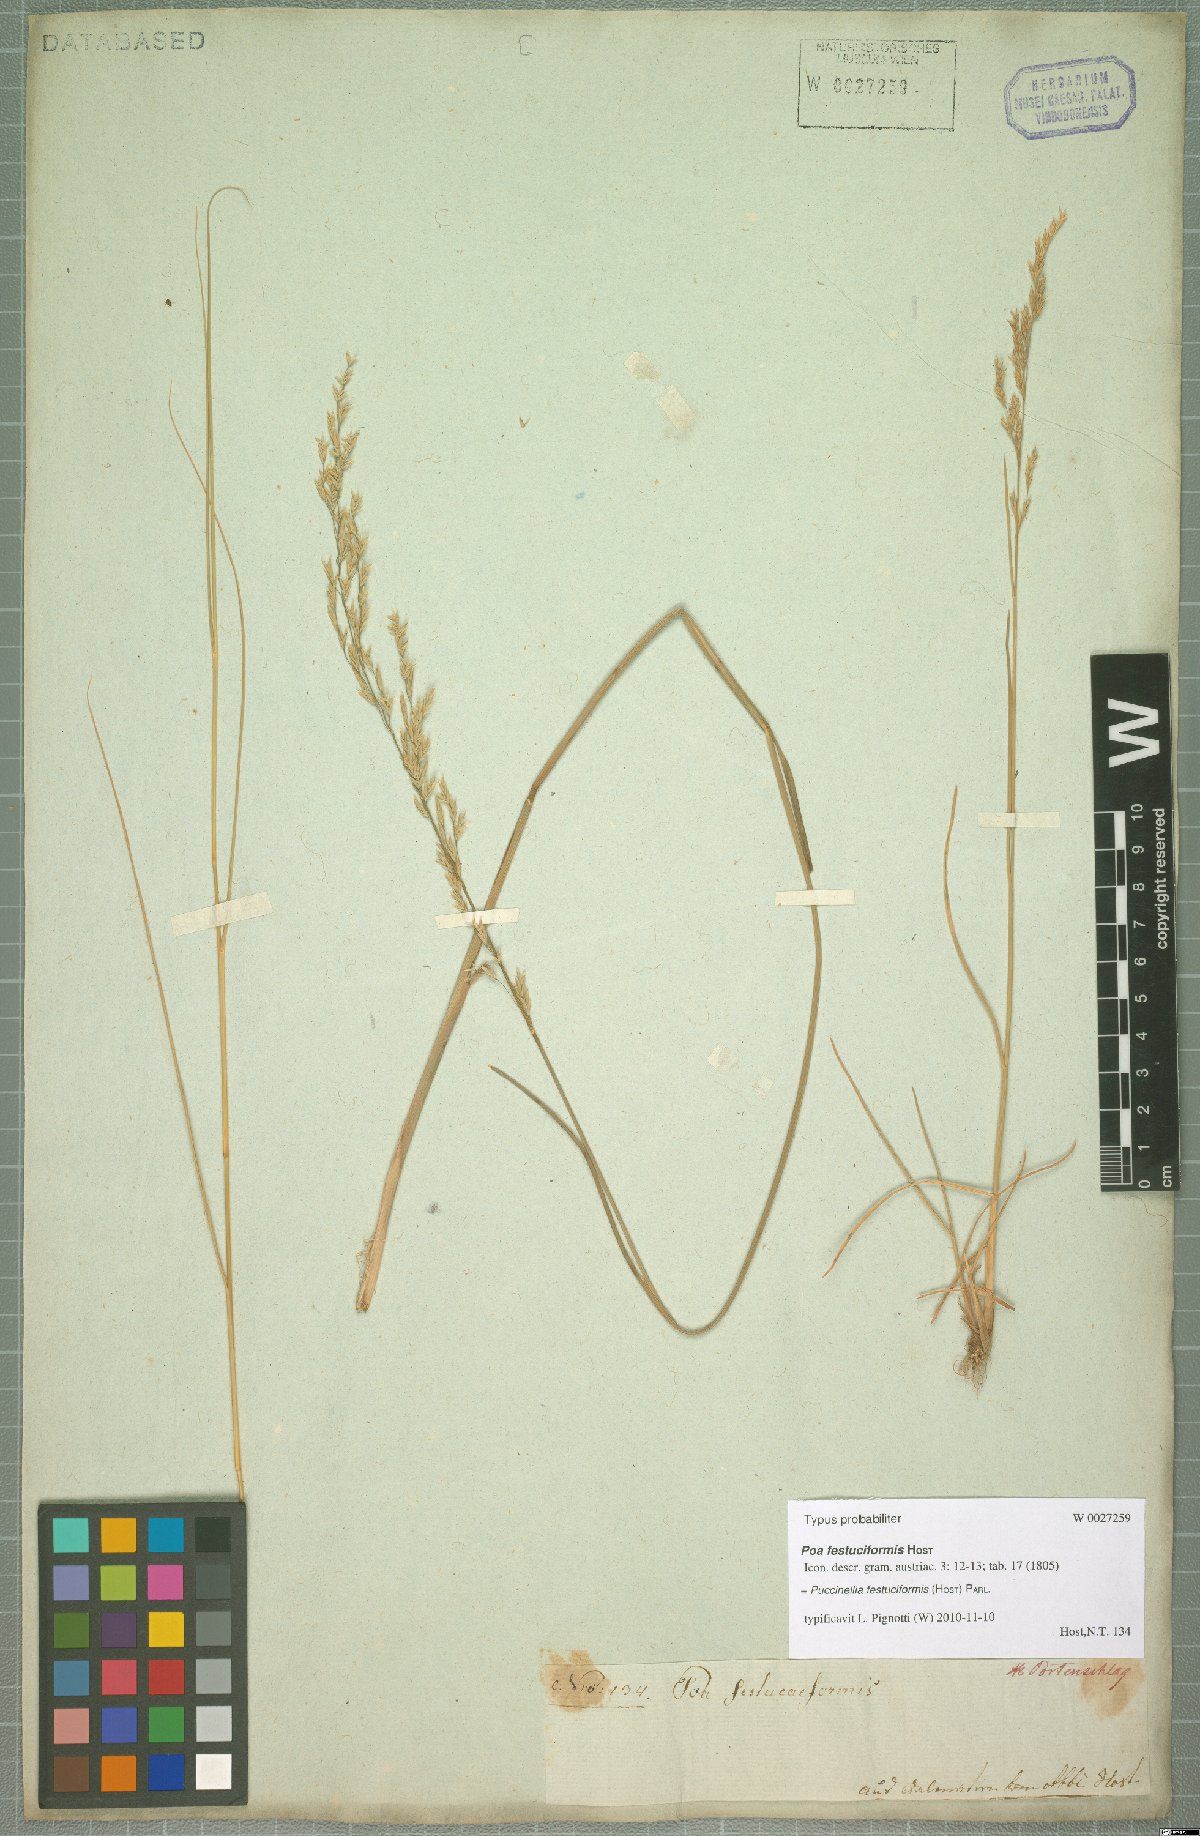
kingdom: Plantae
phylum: Tracheophyta
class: Liliopsida
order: Poales
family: Poaceae
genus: Puccinellia
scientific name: Puccinellia festuciformis
